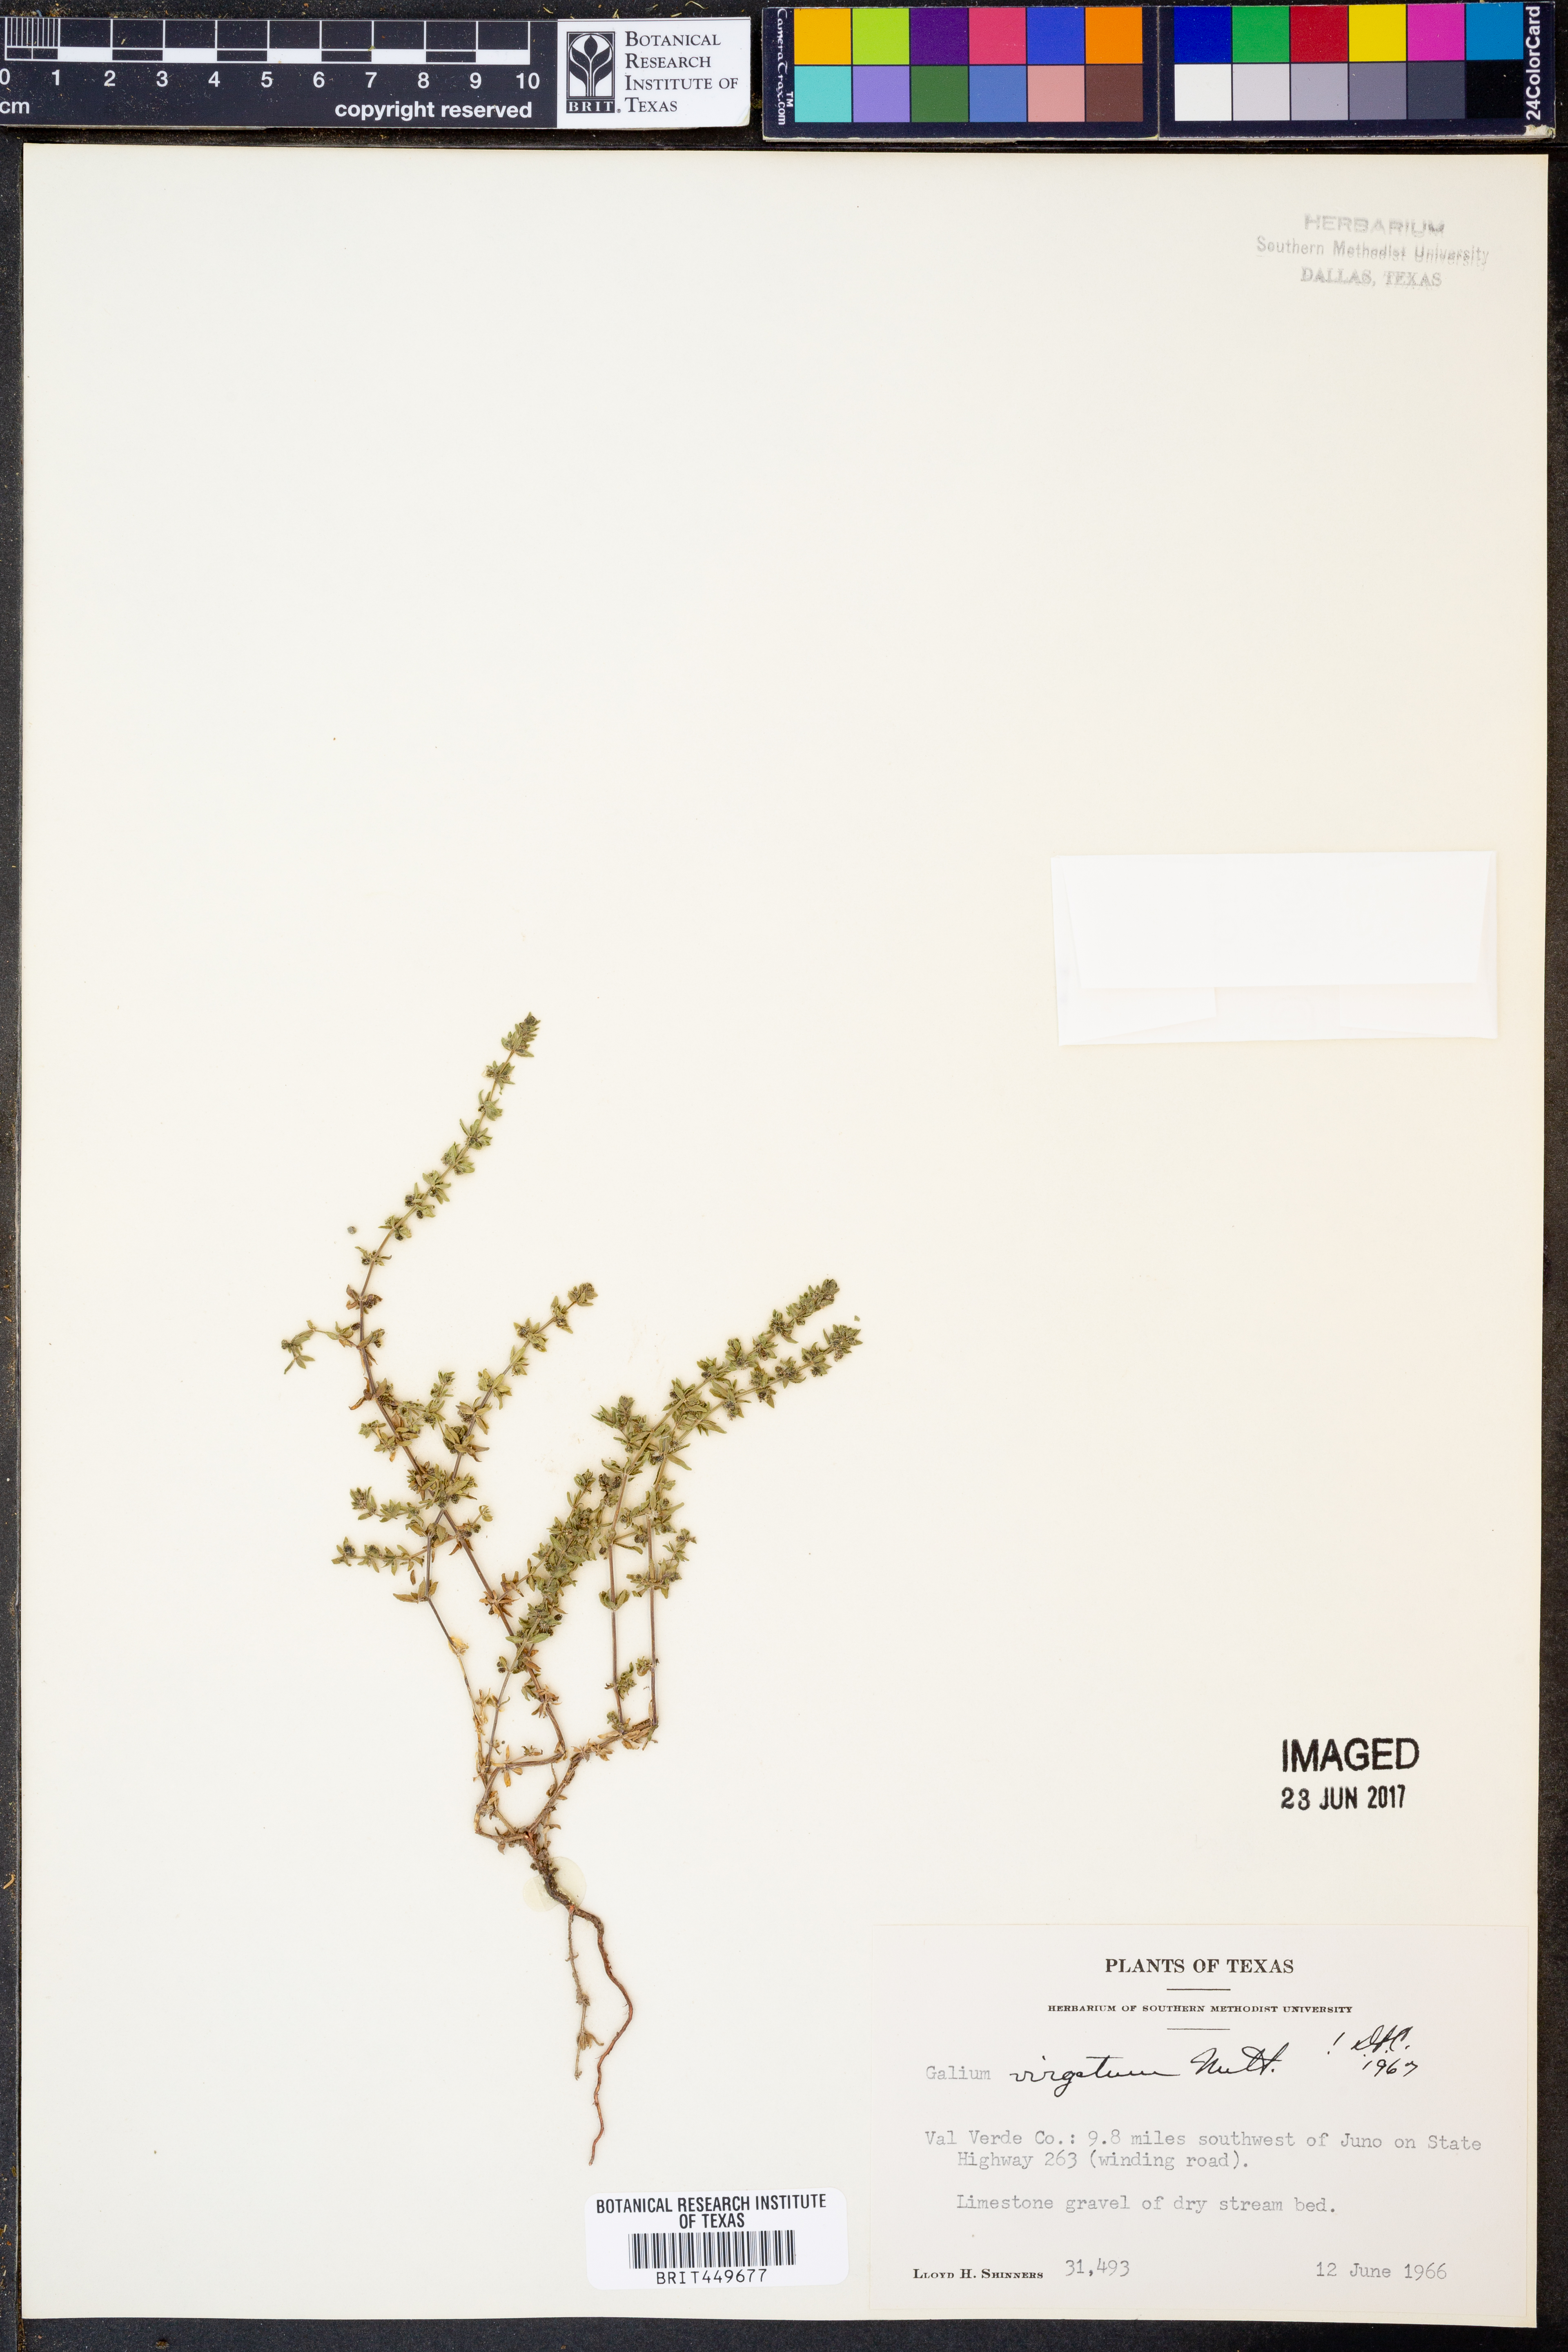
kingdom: Plantae
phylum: Tracheophyta
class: Magnoliopsida
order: Gentianales
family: Rubiaceae
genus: Galium
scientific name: Galium virgatum
